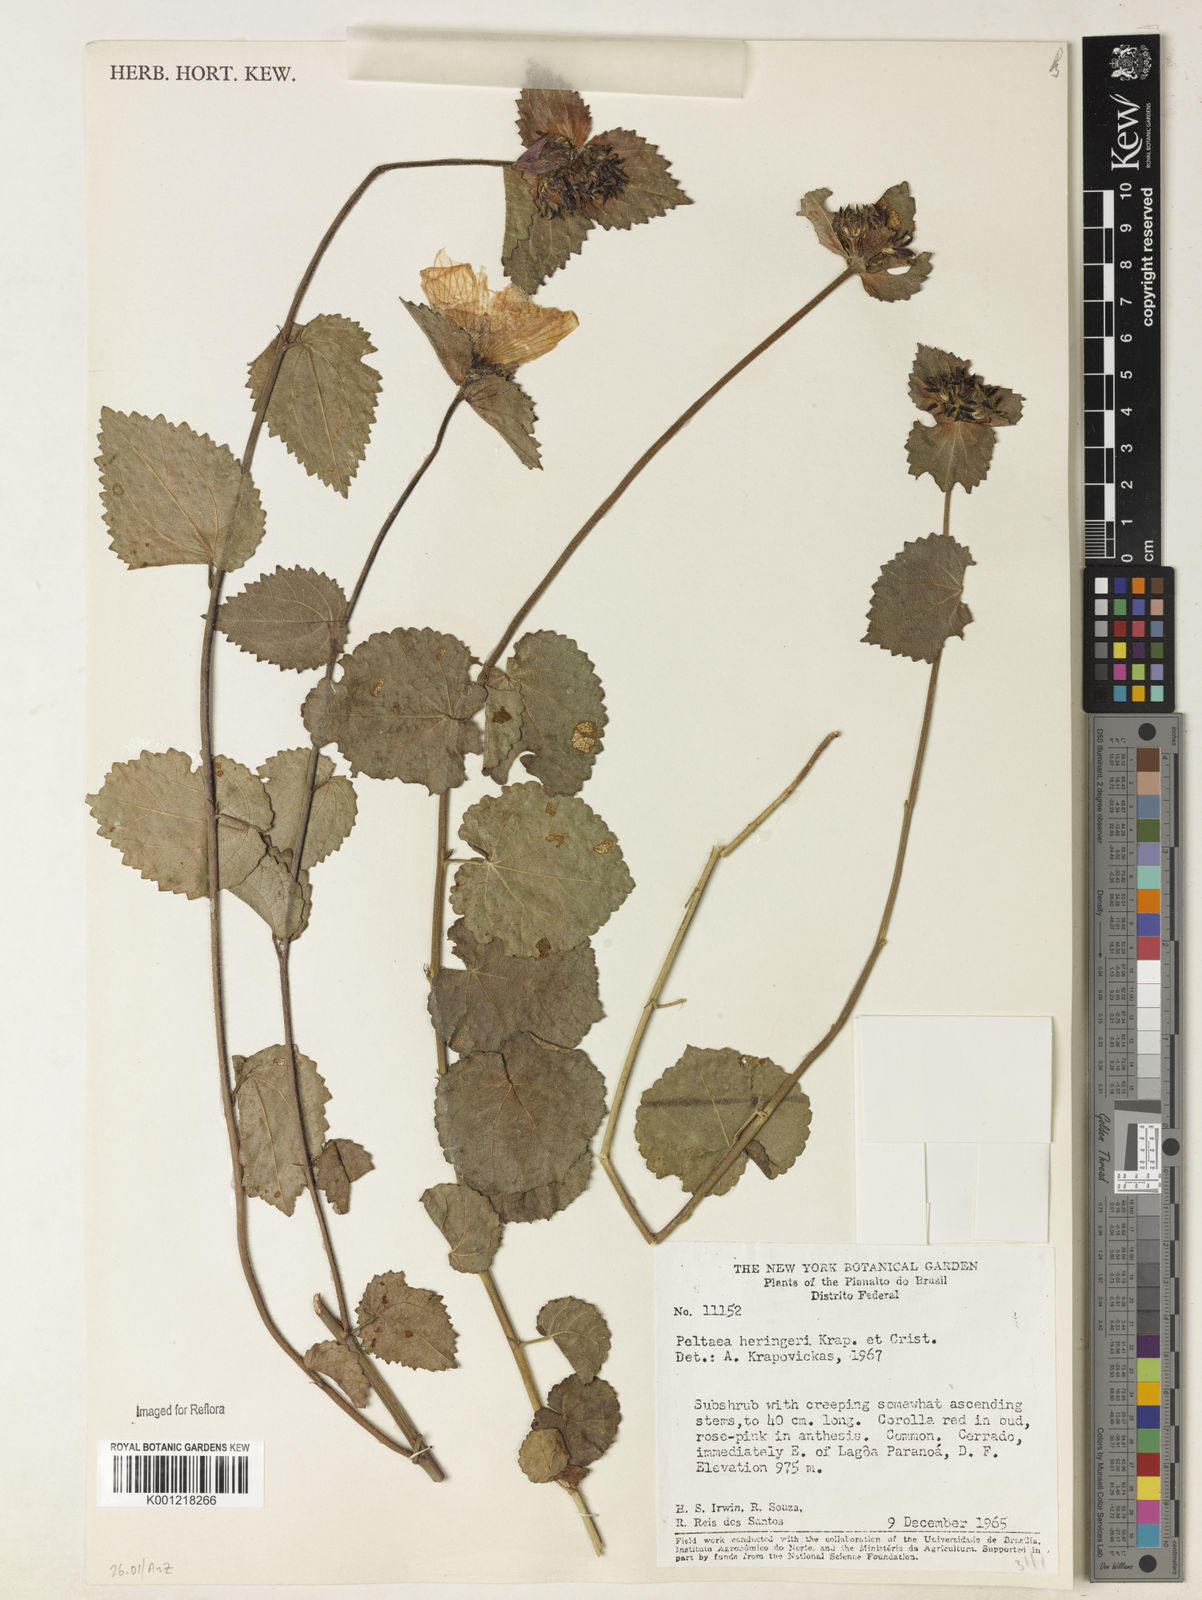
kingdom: Plantae
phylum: Tracheophyta
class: Magnoliopsida
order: Malvales
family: Malvaceae
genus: Peltaea
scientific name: Peltaea
